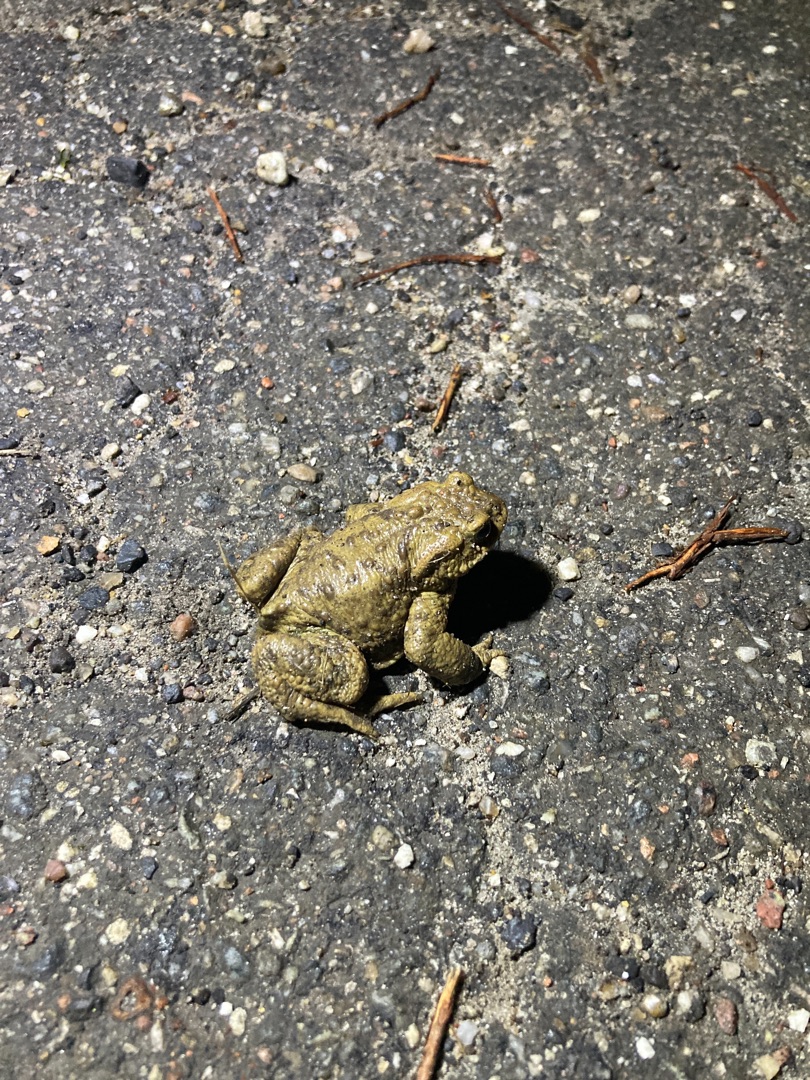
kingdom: Animalia
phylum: Chordata
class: Amphibia
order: Anura
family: Bufonidae
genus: Bufo
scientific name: Bufo bufo
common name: Skrubtudse
